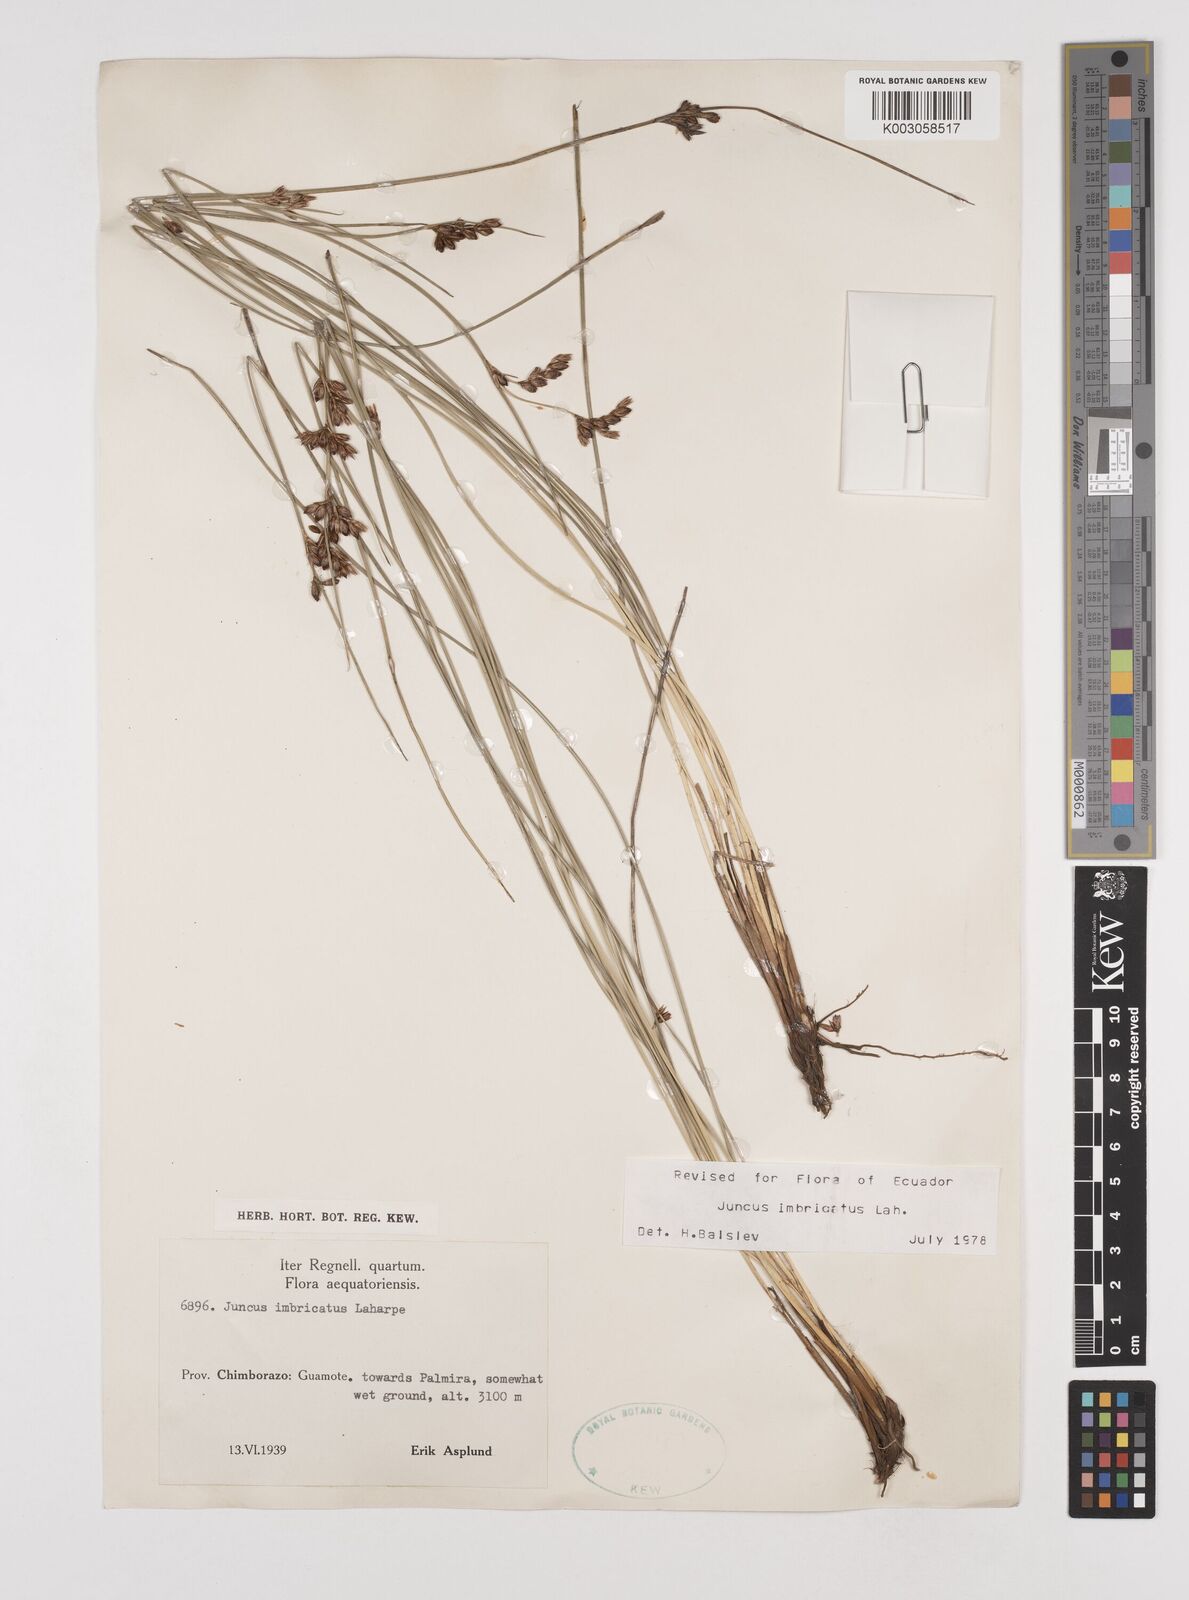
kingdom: Plantae
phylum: Tracheophyta
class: Liliopsida
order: Poales
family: Juncaceae
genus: Juncus
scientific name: Juncus imbricatus
